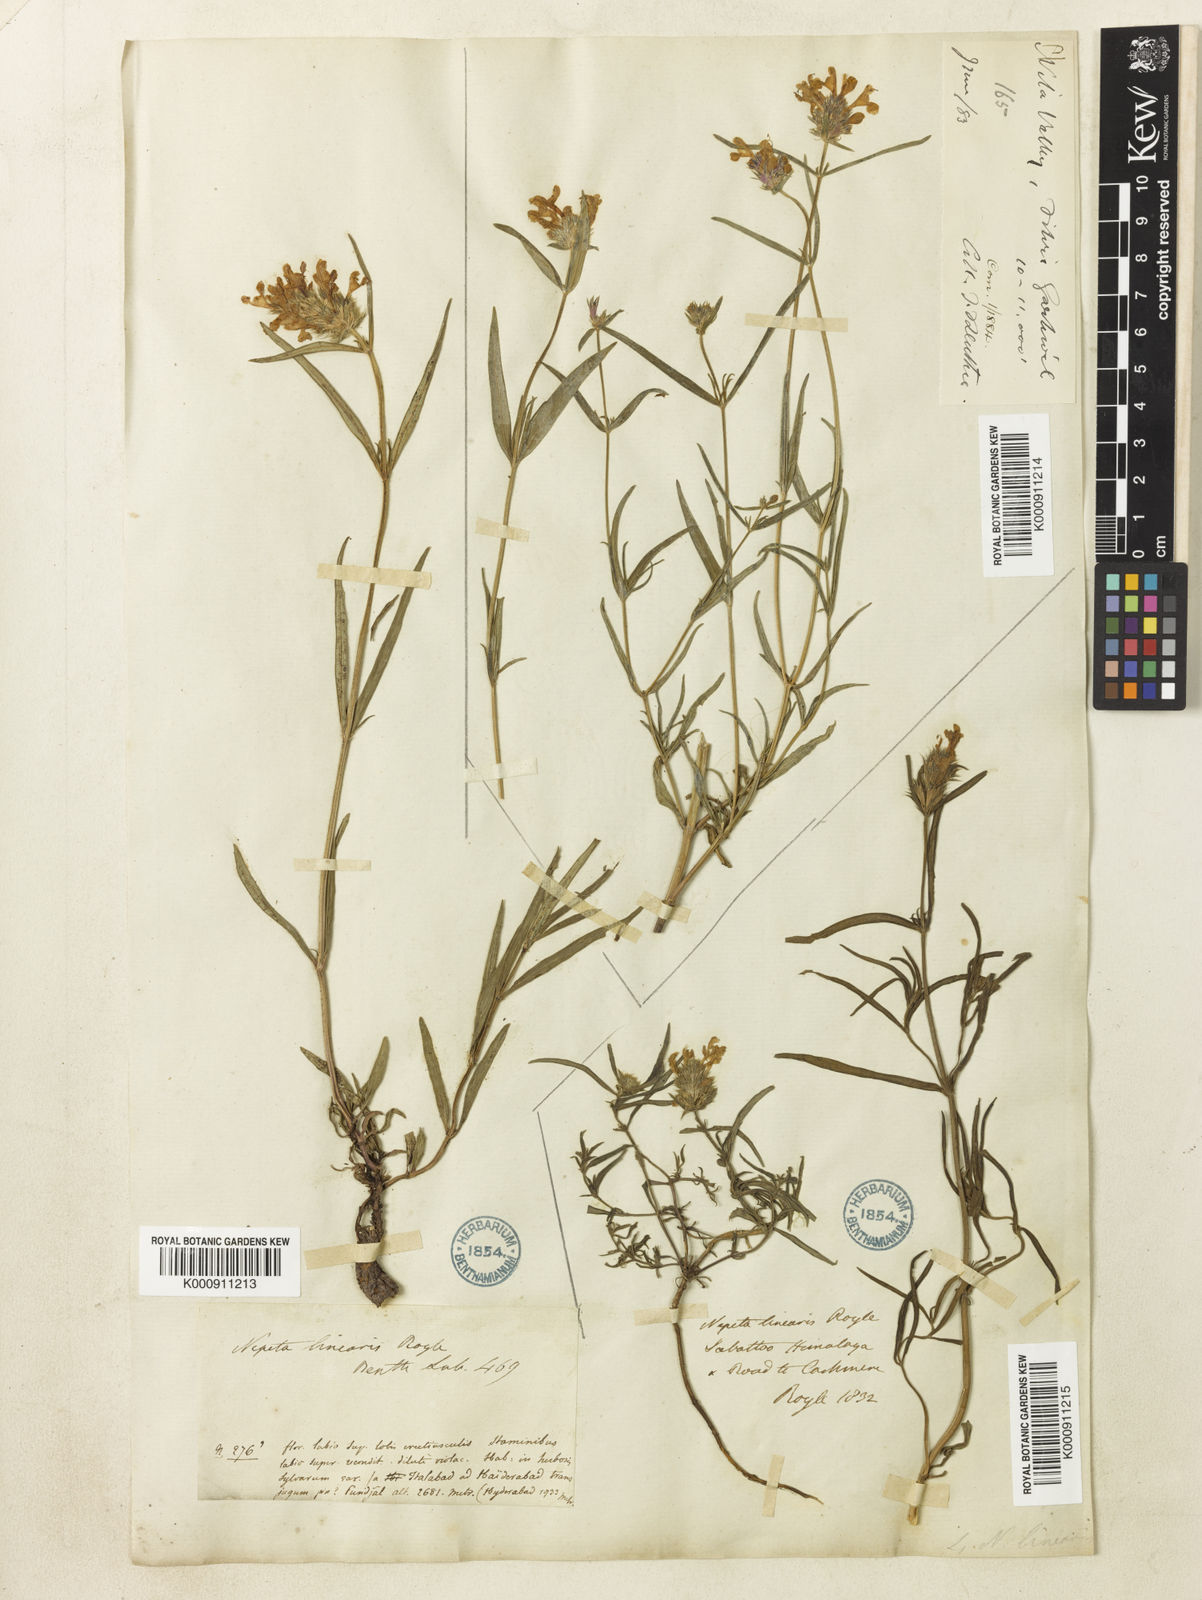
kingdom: Plantae
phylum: Tracheophyta
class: Magnoliopsida
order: Lamiales
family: Lamiaceae
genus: Nepeta
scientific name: Nepeta linearis
